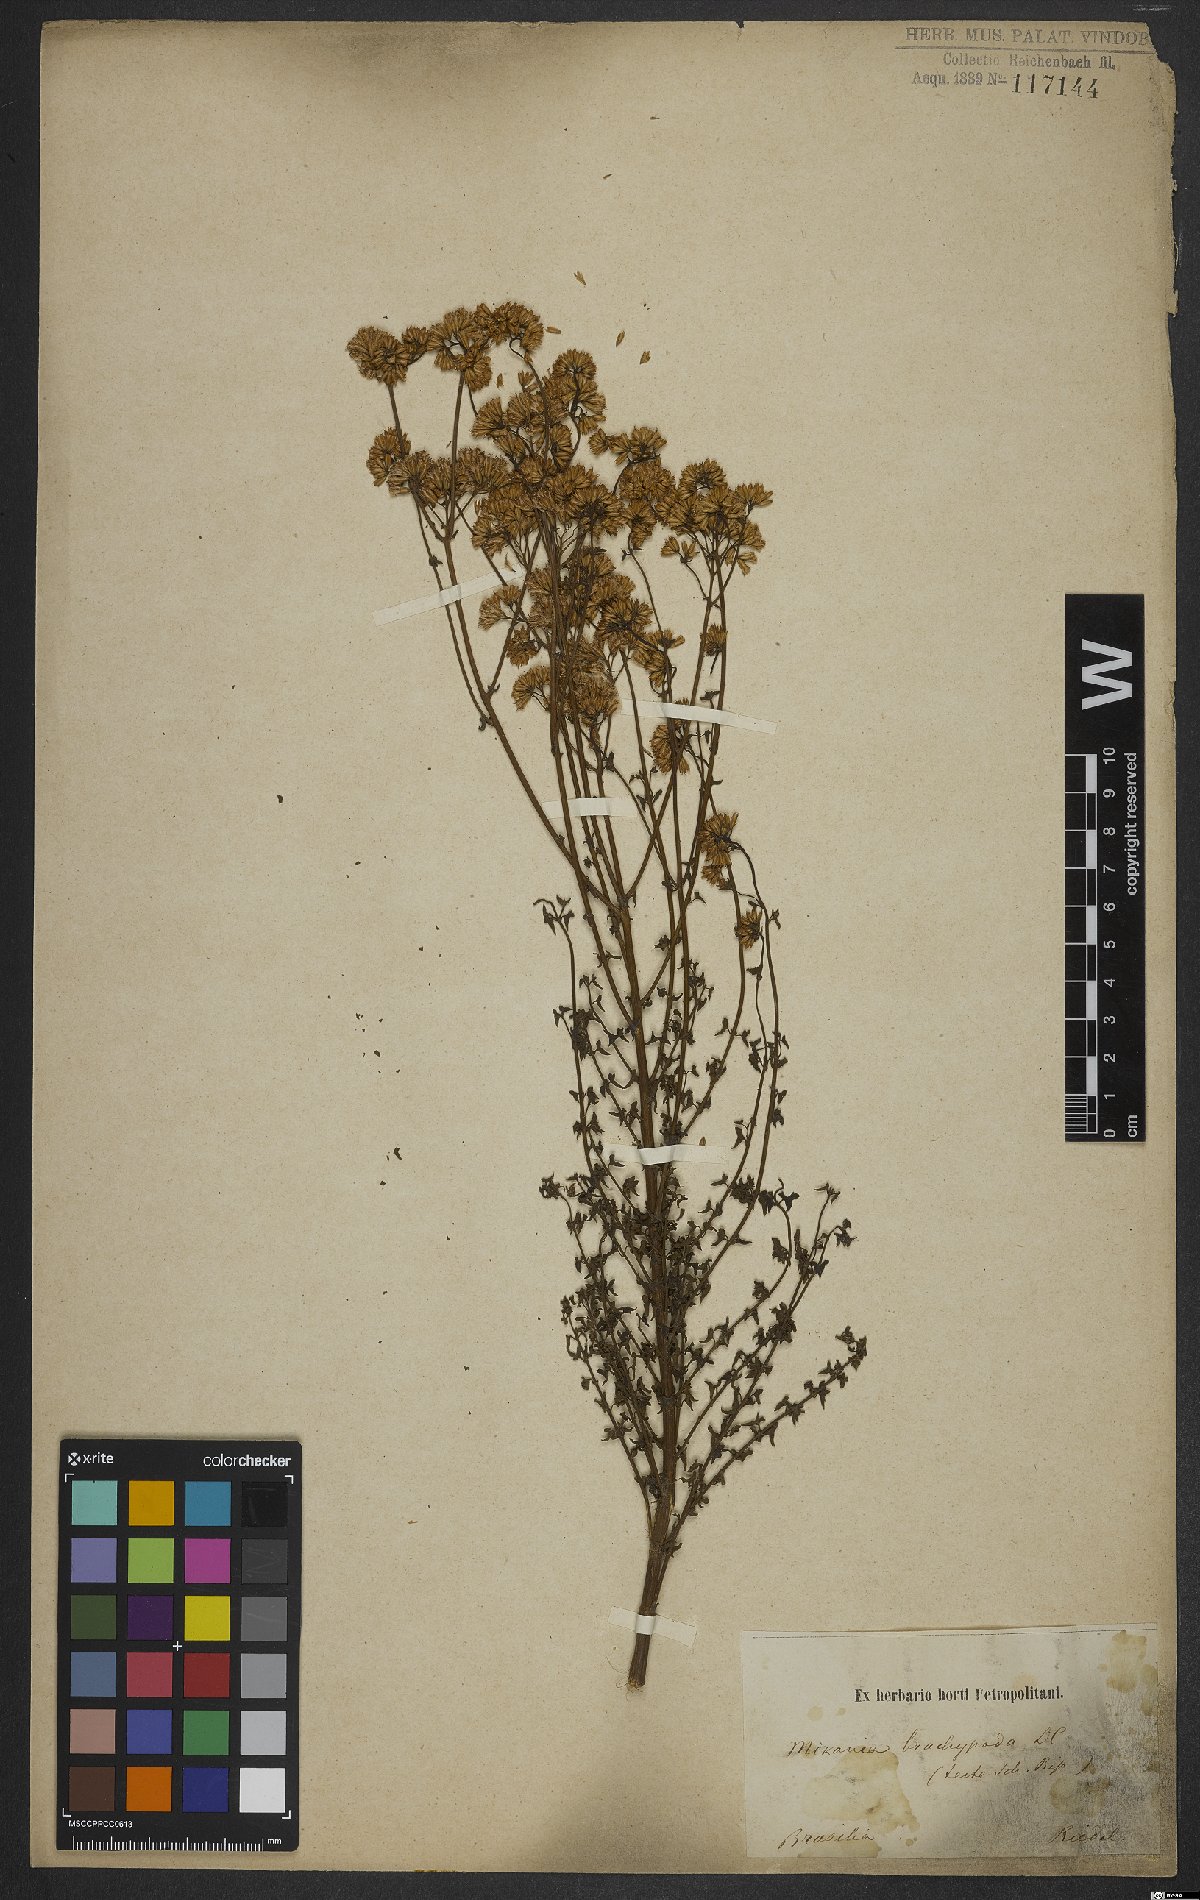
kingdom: Plantae
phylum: Tracheophyta
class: Magnoliopsida
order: Asterales
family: Asteraceae
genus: Mikania
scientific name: Mikania officinalis
